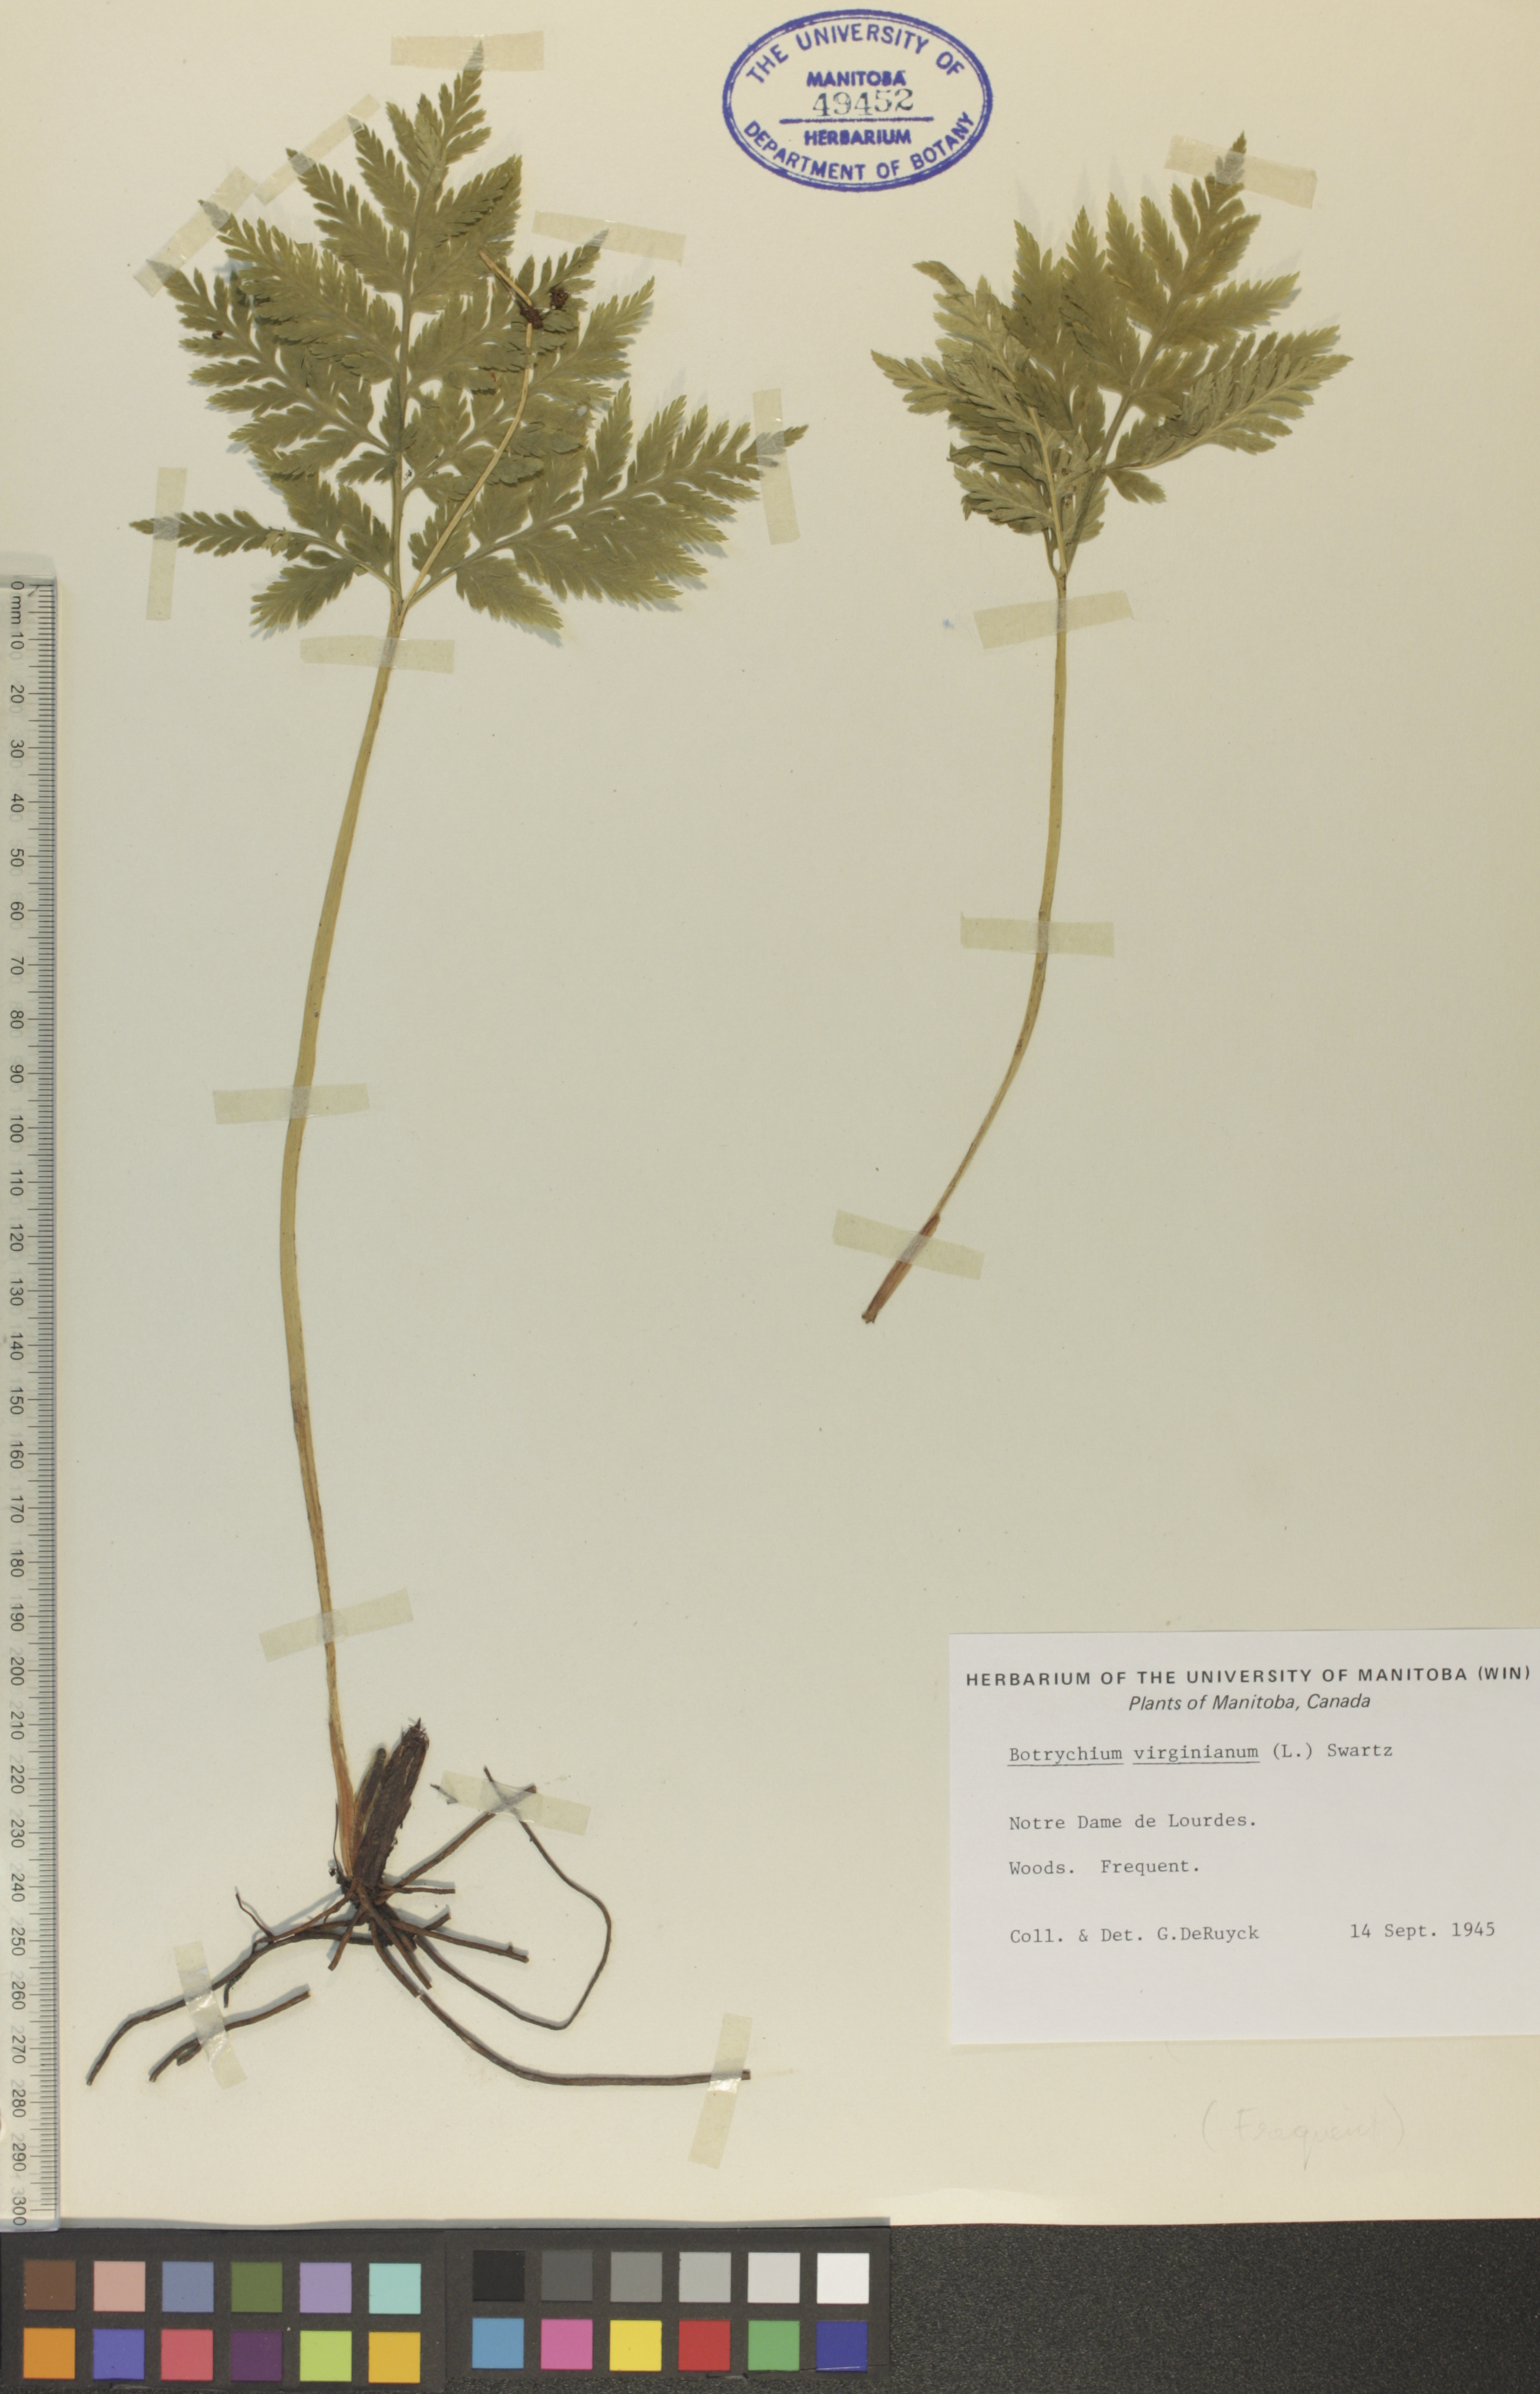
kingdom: Plantae
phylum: Tracheophyta
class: Polypodiopsida
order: Ophioglossales
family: Ophioglossaceae
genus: Botrypus
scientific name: Botrypus virginianus
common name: Common grapefern
